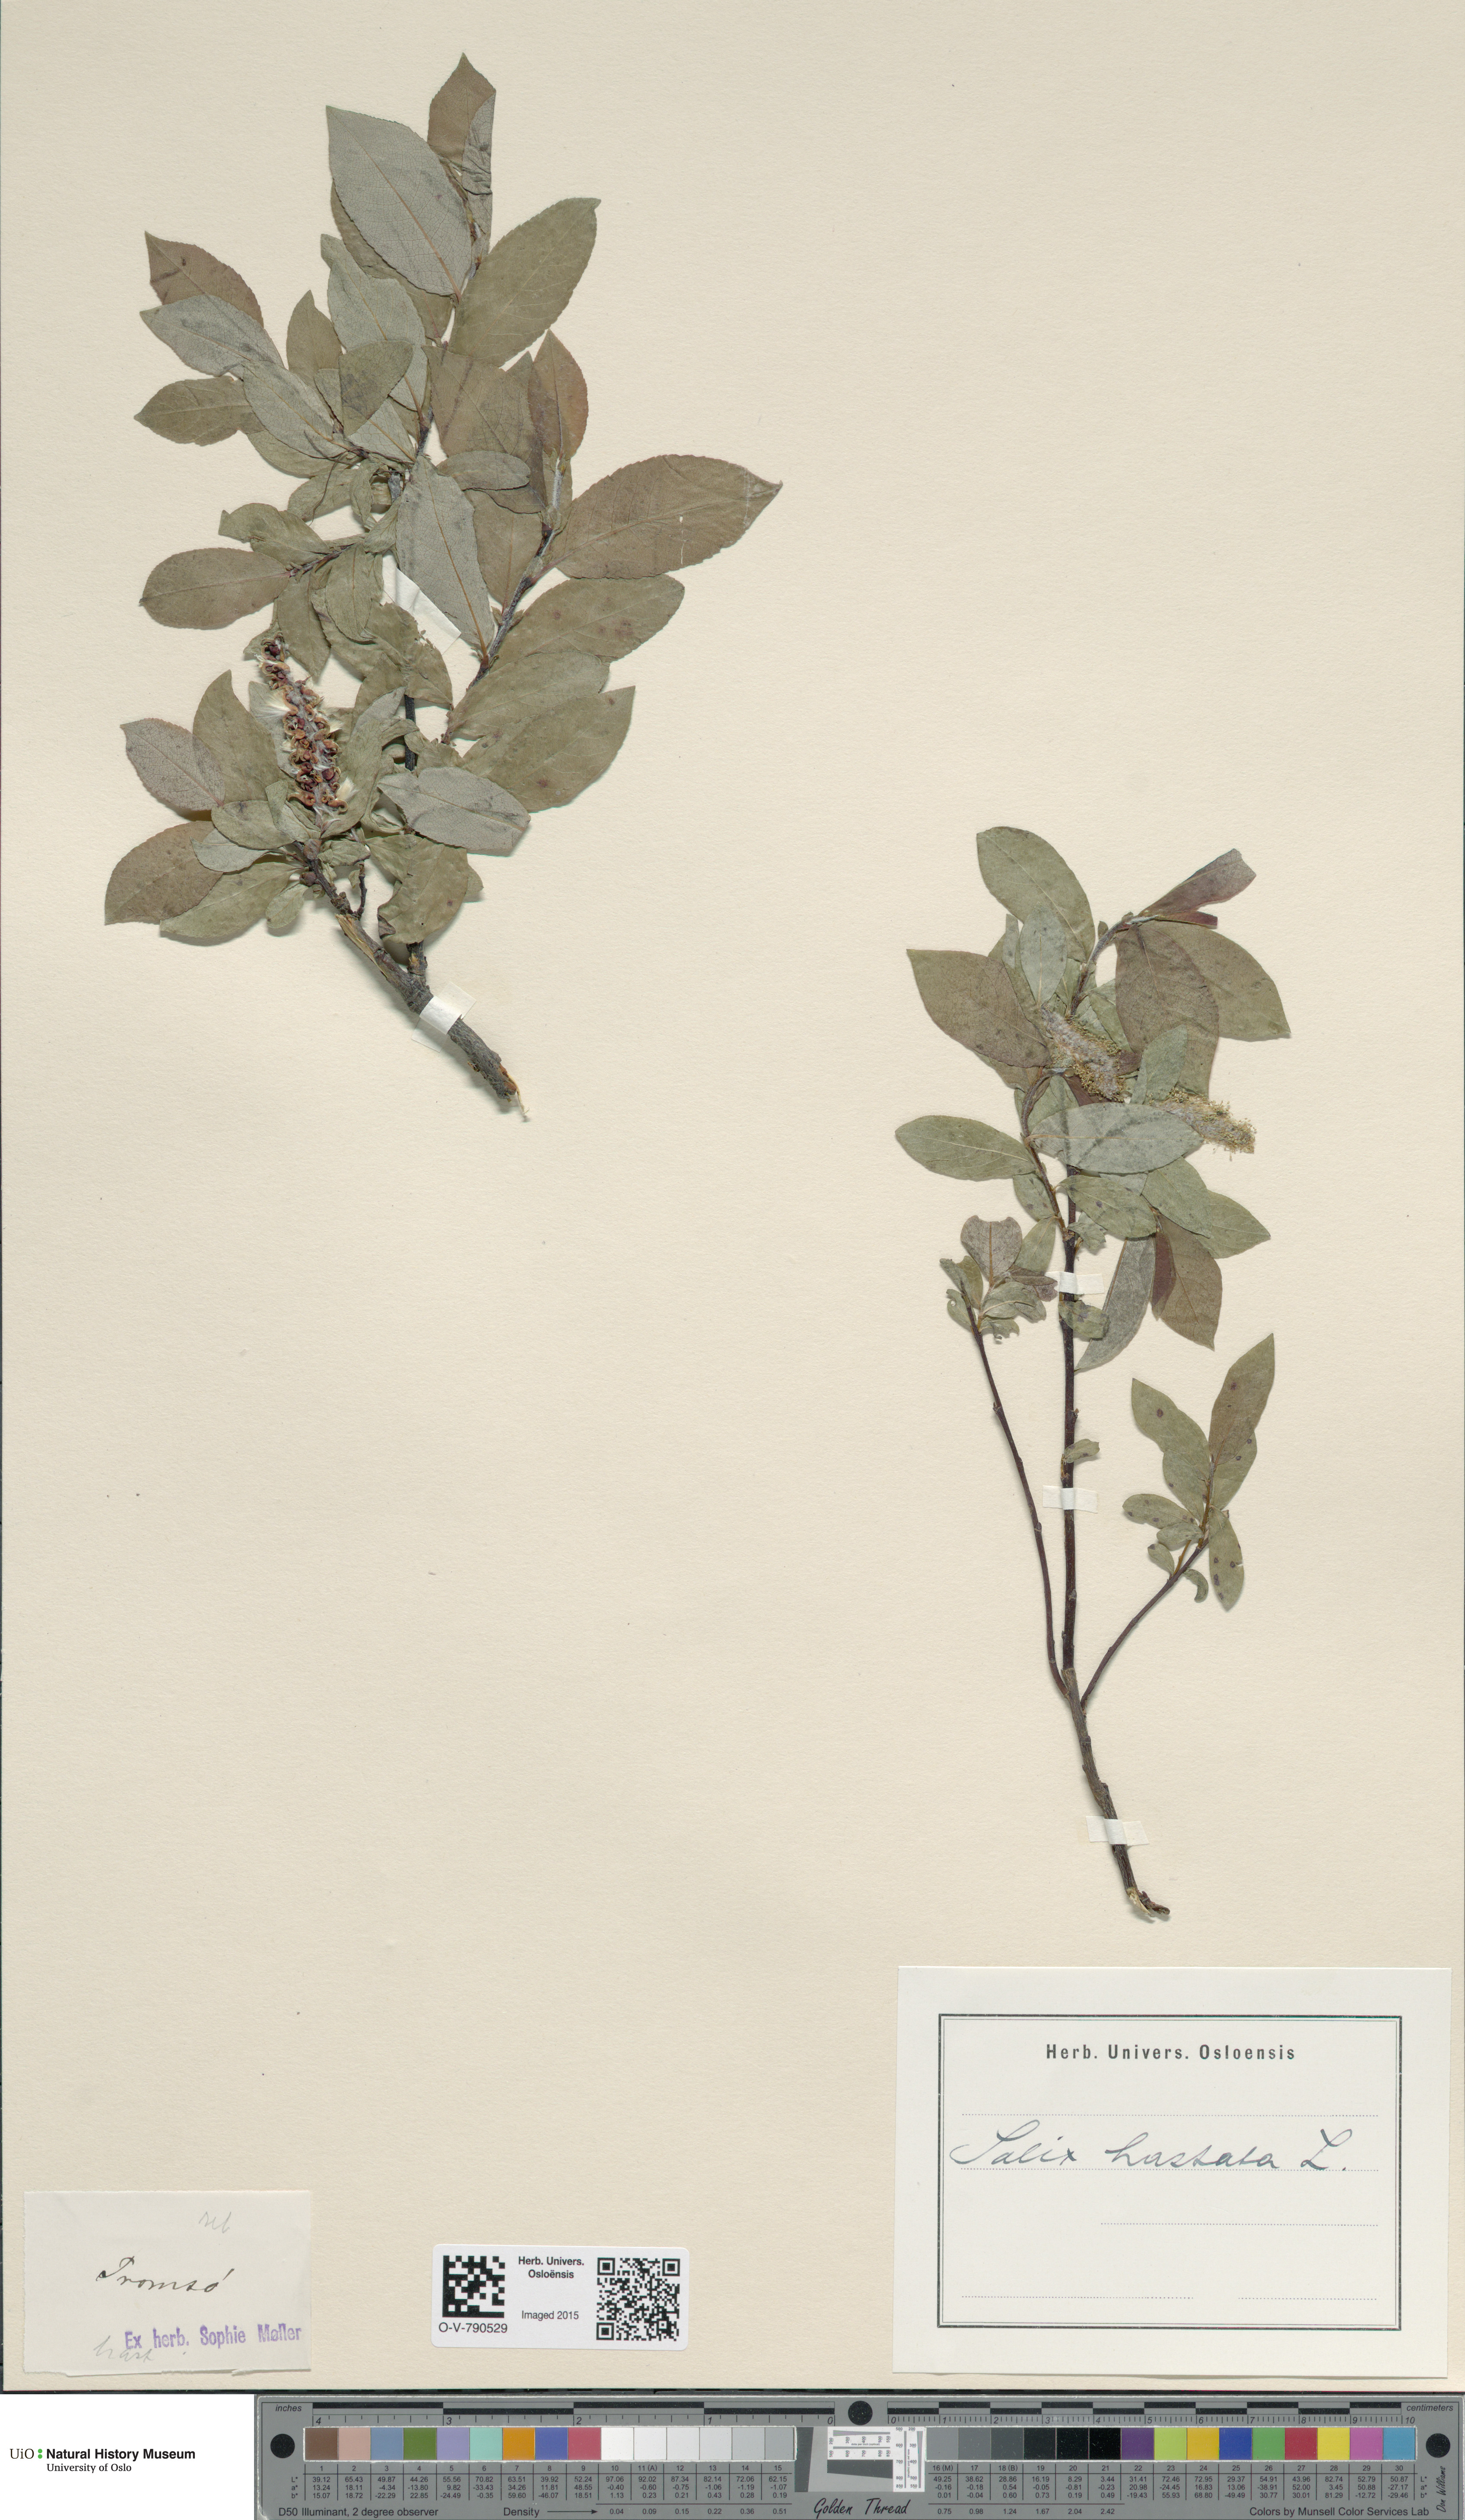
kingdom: Plantae
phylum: Tracheophyta
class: Magnoliopsida
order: Malpighiales
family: Salicaceae
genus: Salix
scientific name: Salix hastata
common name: Halberd willow
